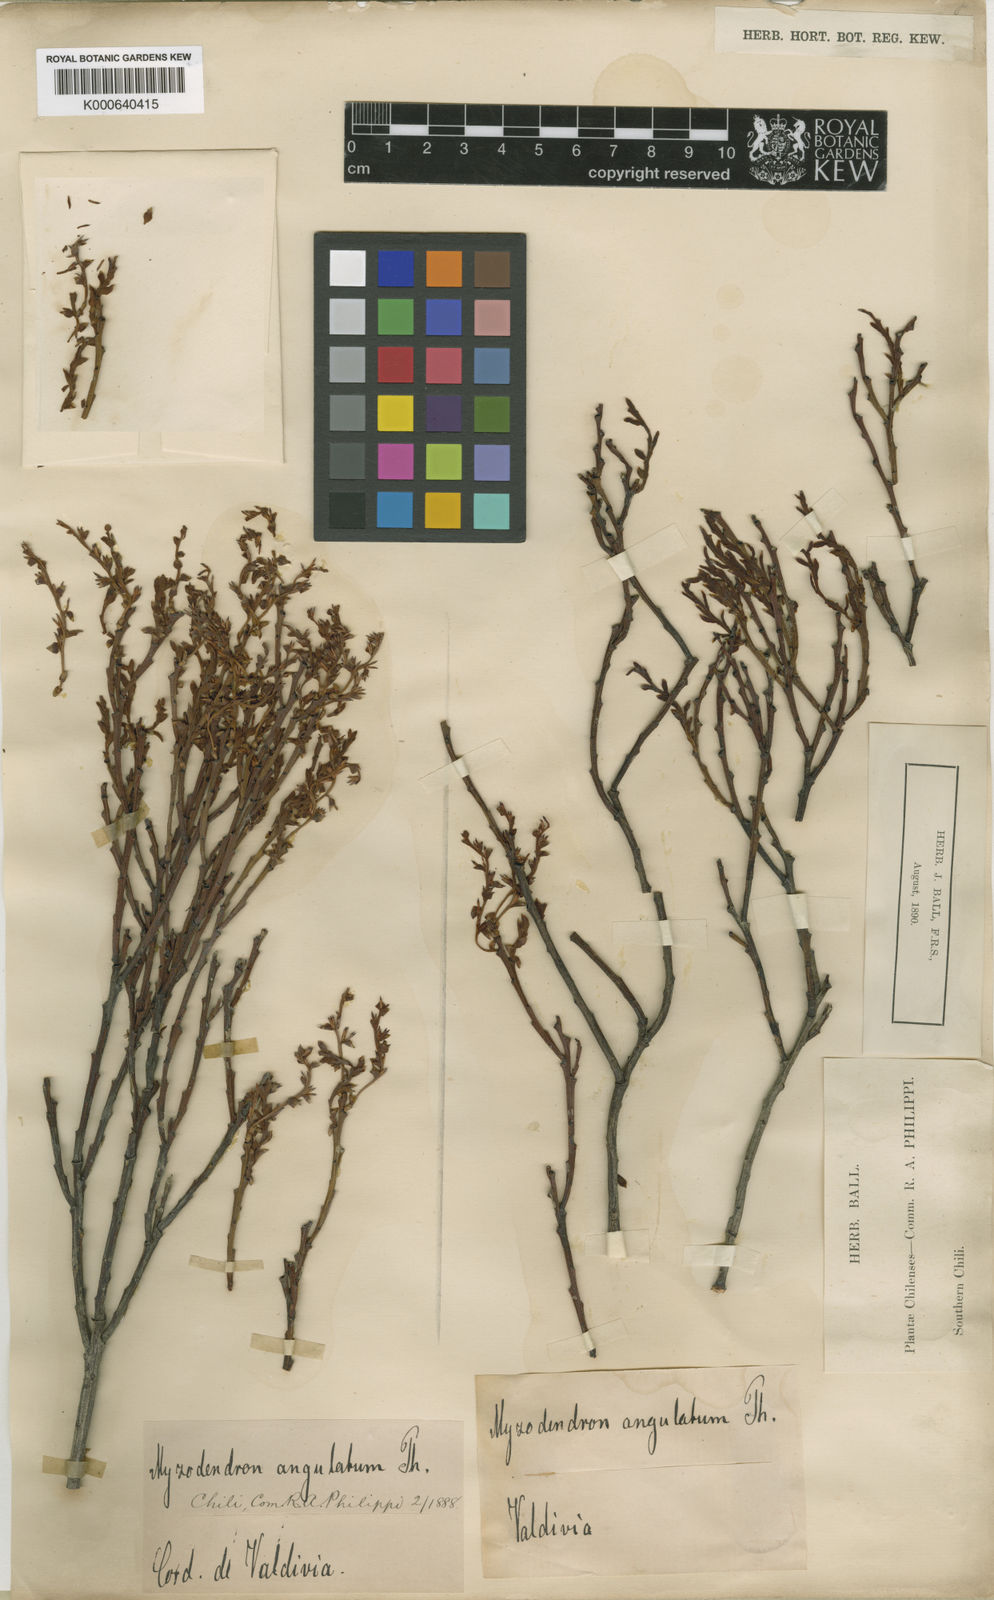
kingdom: Plantae
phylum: Tracheophyta
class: Magnoliopsida
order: Santalales
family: Misodendraceae
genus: Misodendrum
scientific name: Misodendrum angulatum
